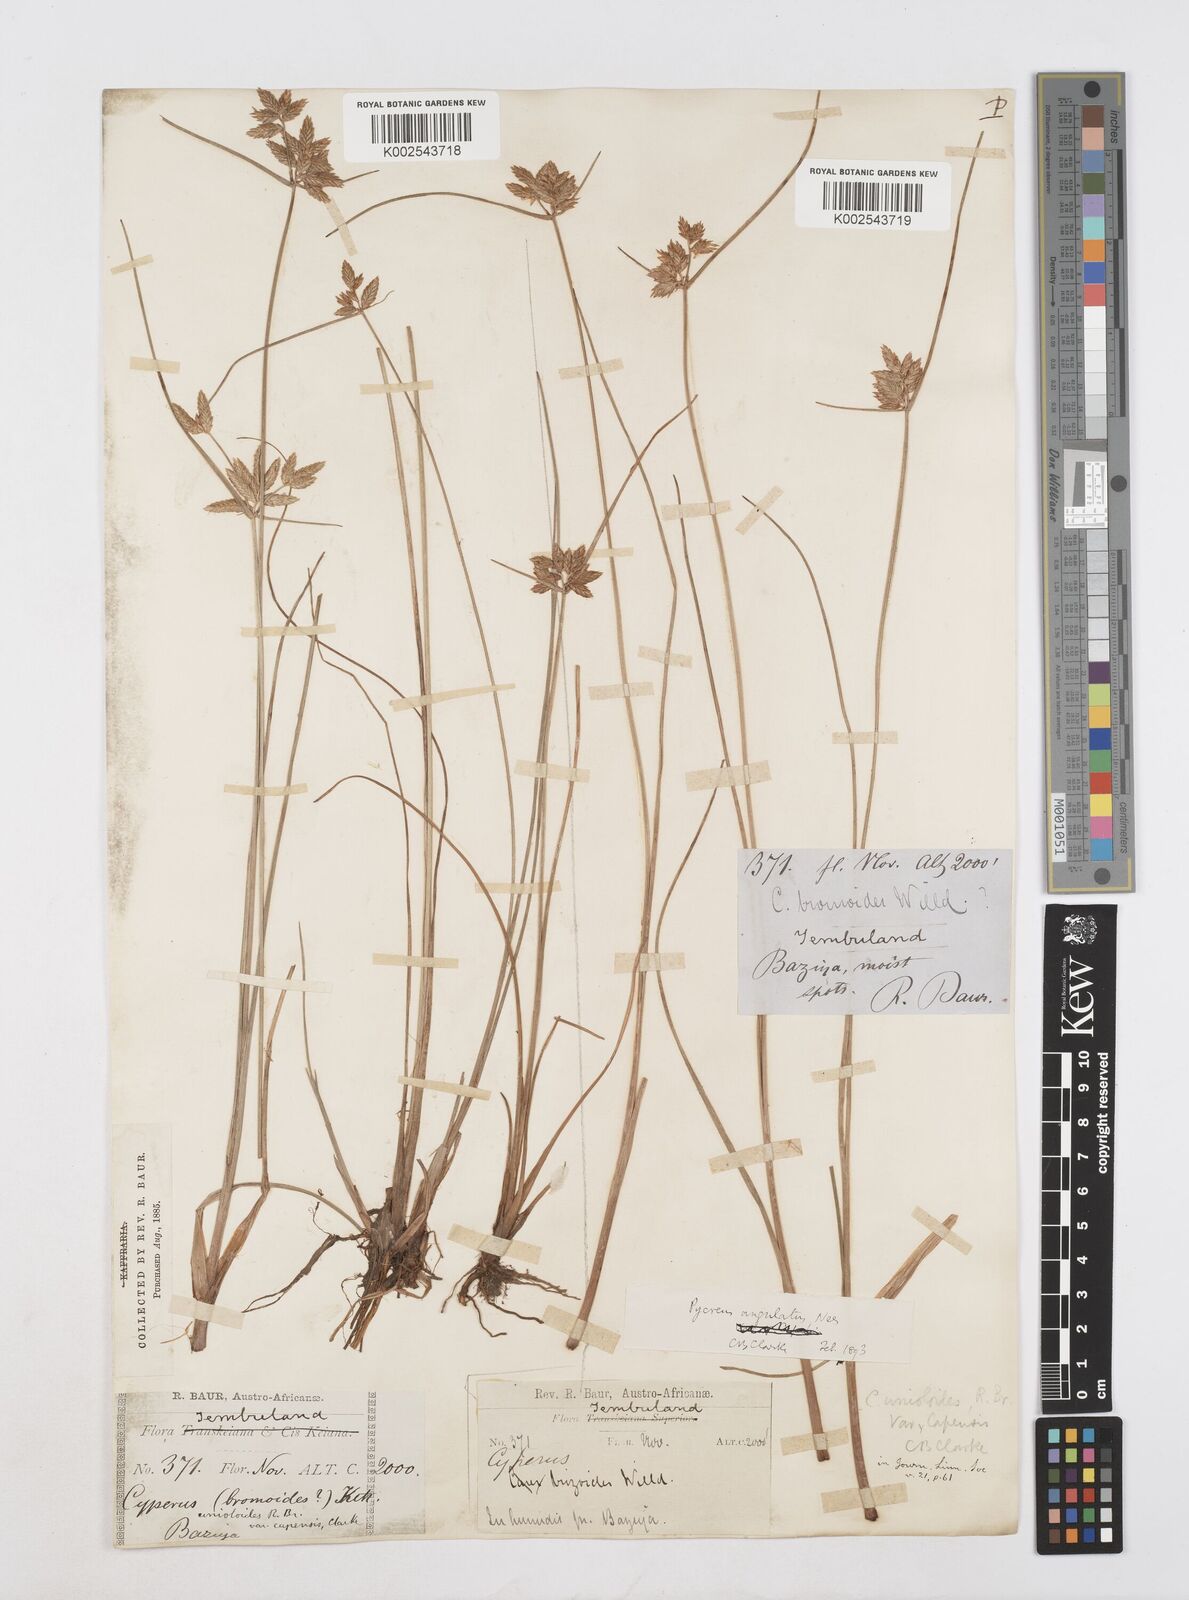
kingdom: Plantae
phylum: Tracheophyta
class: Liliopsida
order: Poales
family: Cyperaceae
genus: Cyperus
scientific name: Cyperus unioloides
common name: Uniola flatsedge
